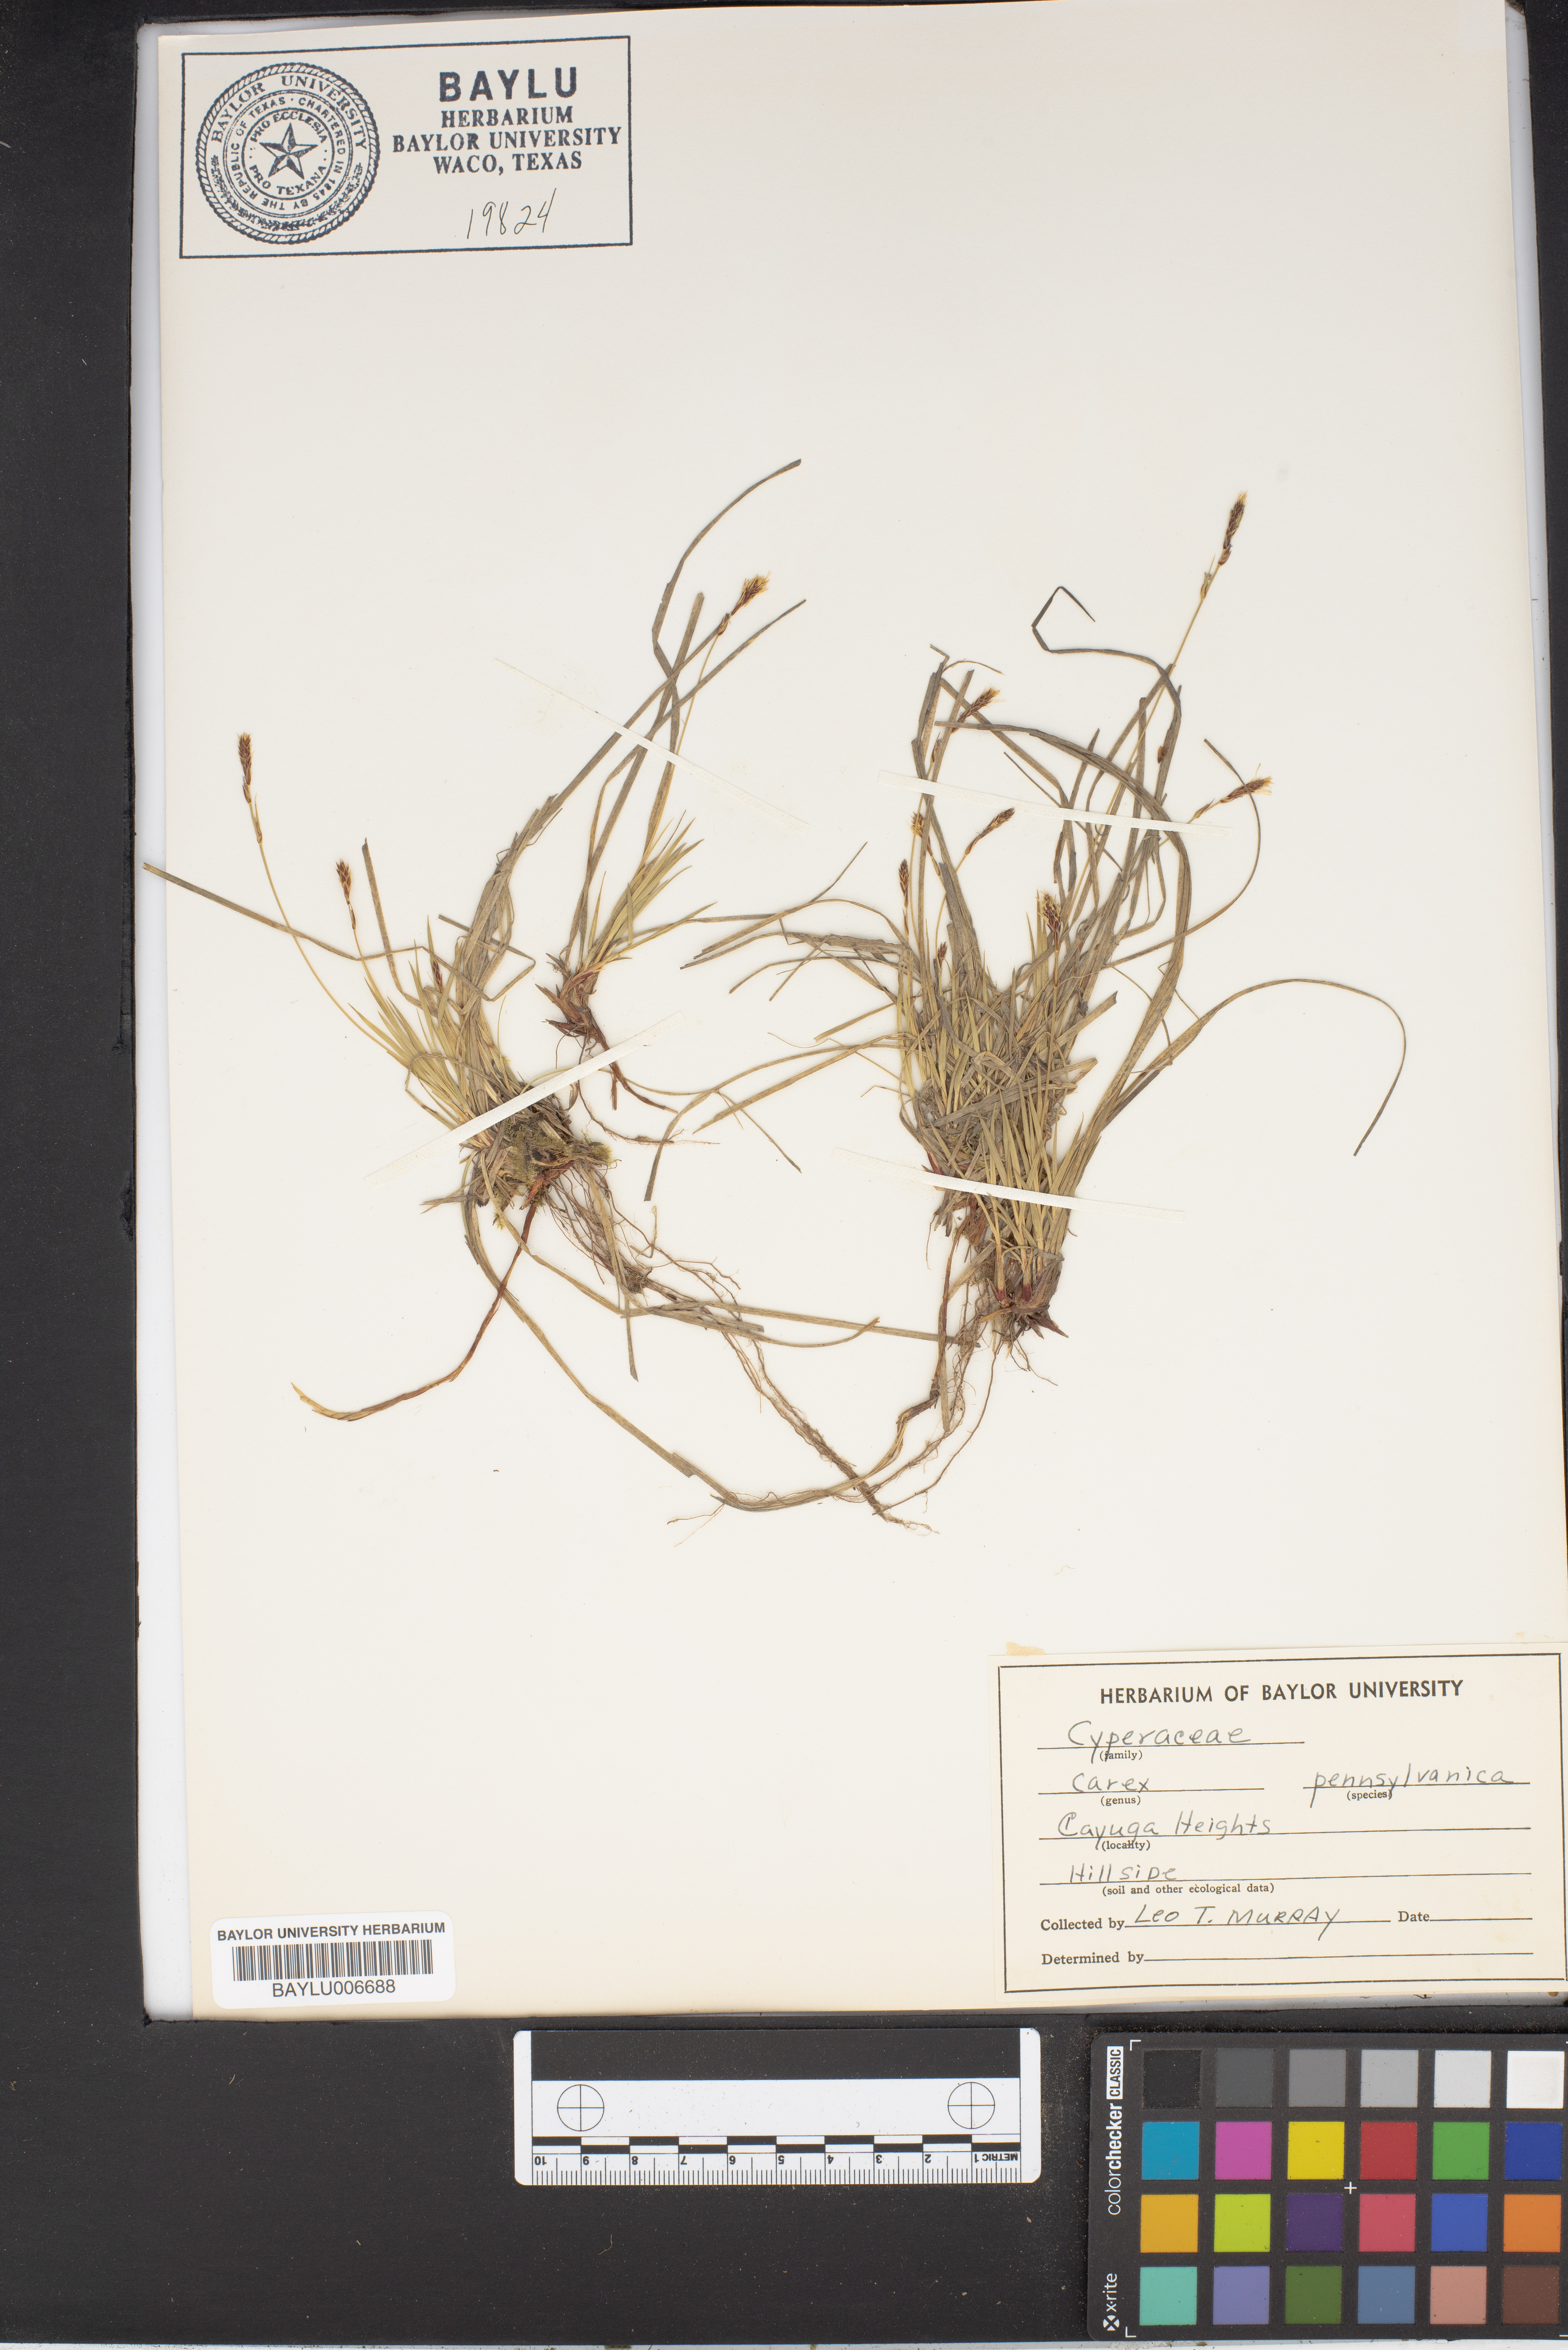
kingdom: Plantae
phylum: Tracheophyta
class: Liliopsida
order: Poales
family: Cyperaceae
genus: Carex
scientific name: Carex albicans
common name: Bellow-beaked sedge
